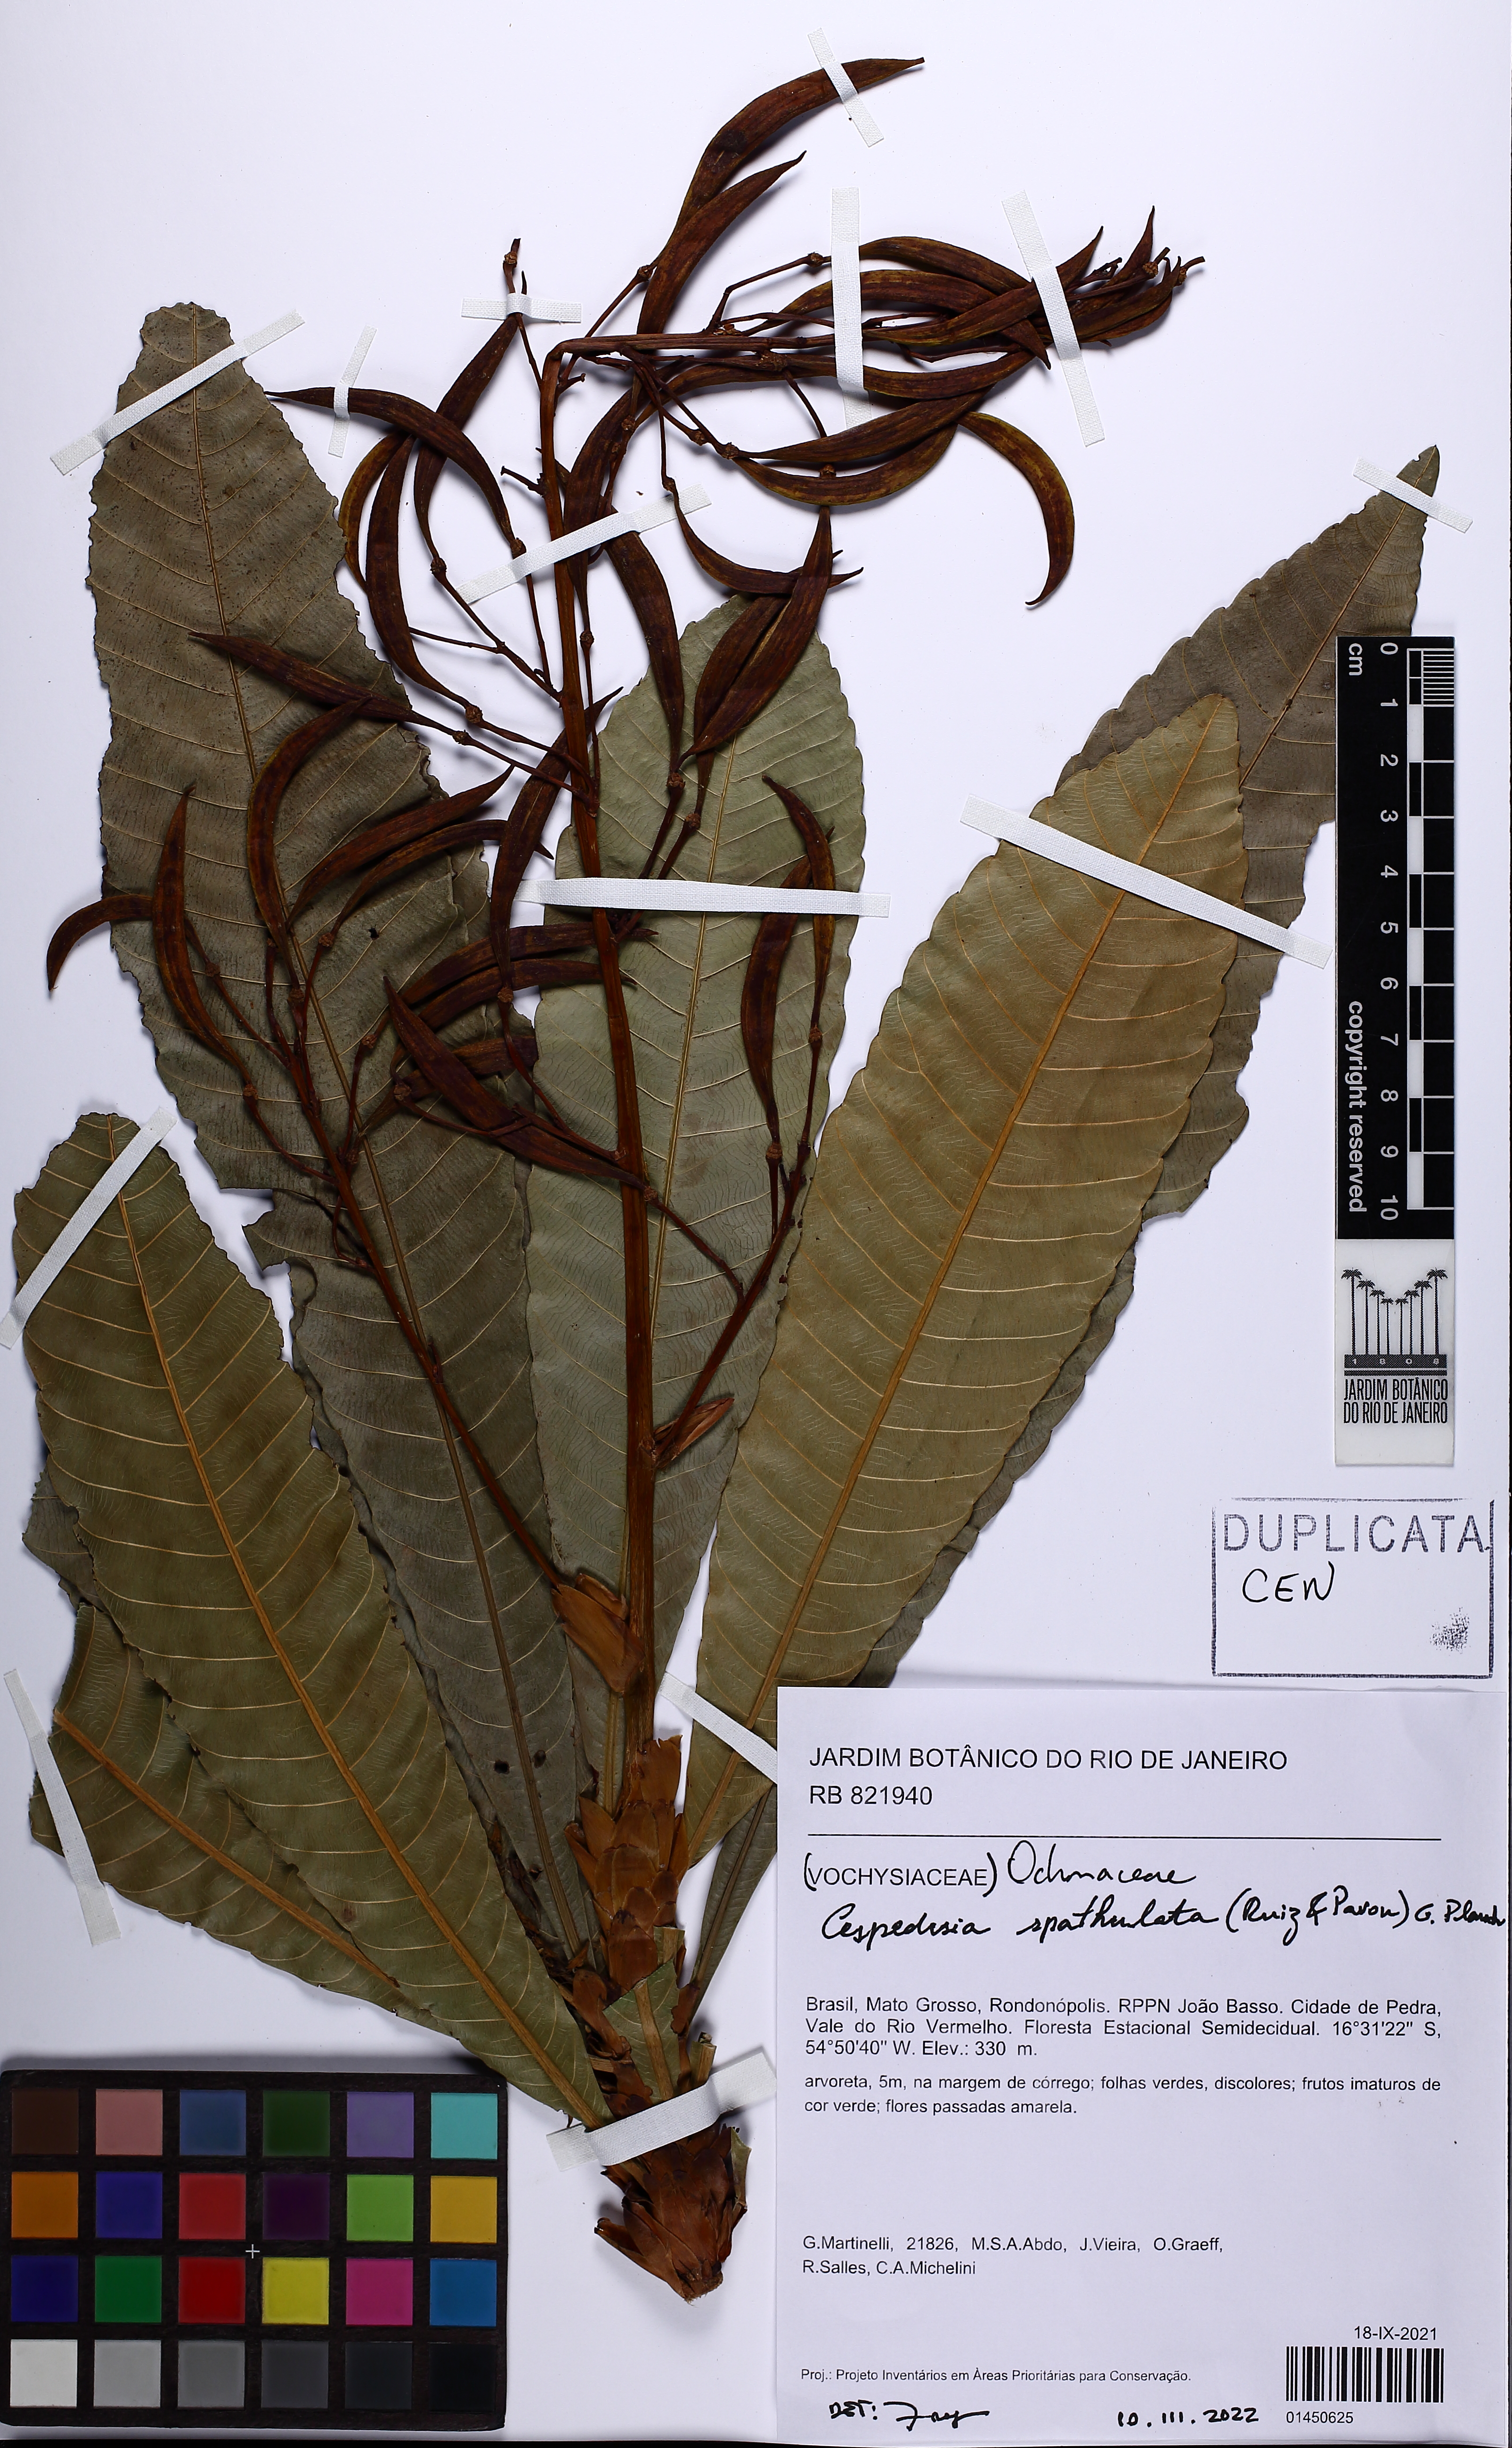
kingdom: Plantae
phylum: Tracheophyta
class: Magnoliopsida
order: Malpighiales
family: Ochnaceae
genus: Cespedesia
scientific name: Cespedesia spathulata
